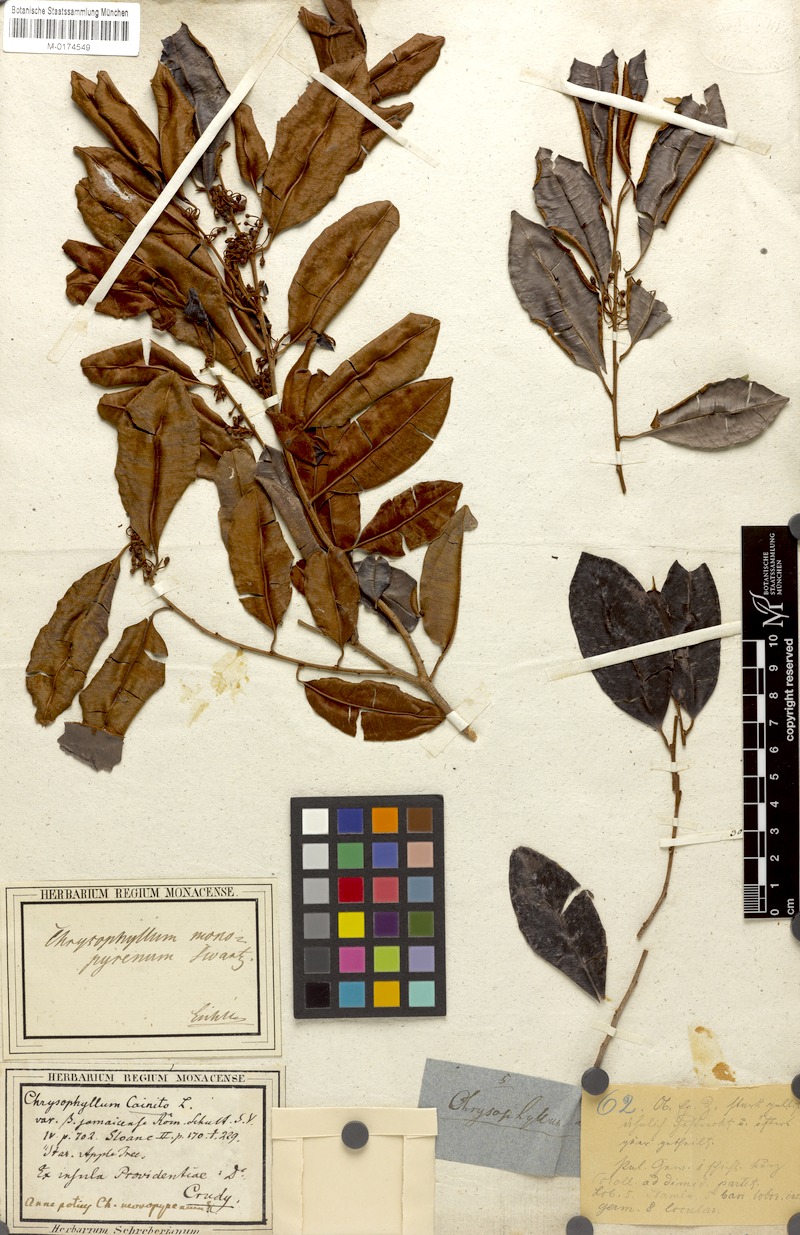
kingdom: Plantae
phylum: Tracheophyta
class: Magnoliopsida
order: Ericales
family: Sapotaceae
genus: Chrysophyllum
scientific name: Chrysophyllum cainito
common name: Star-apple
